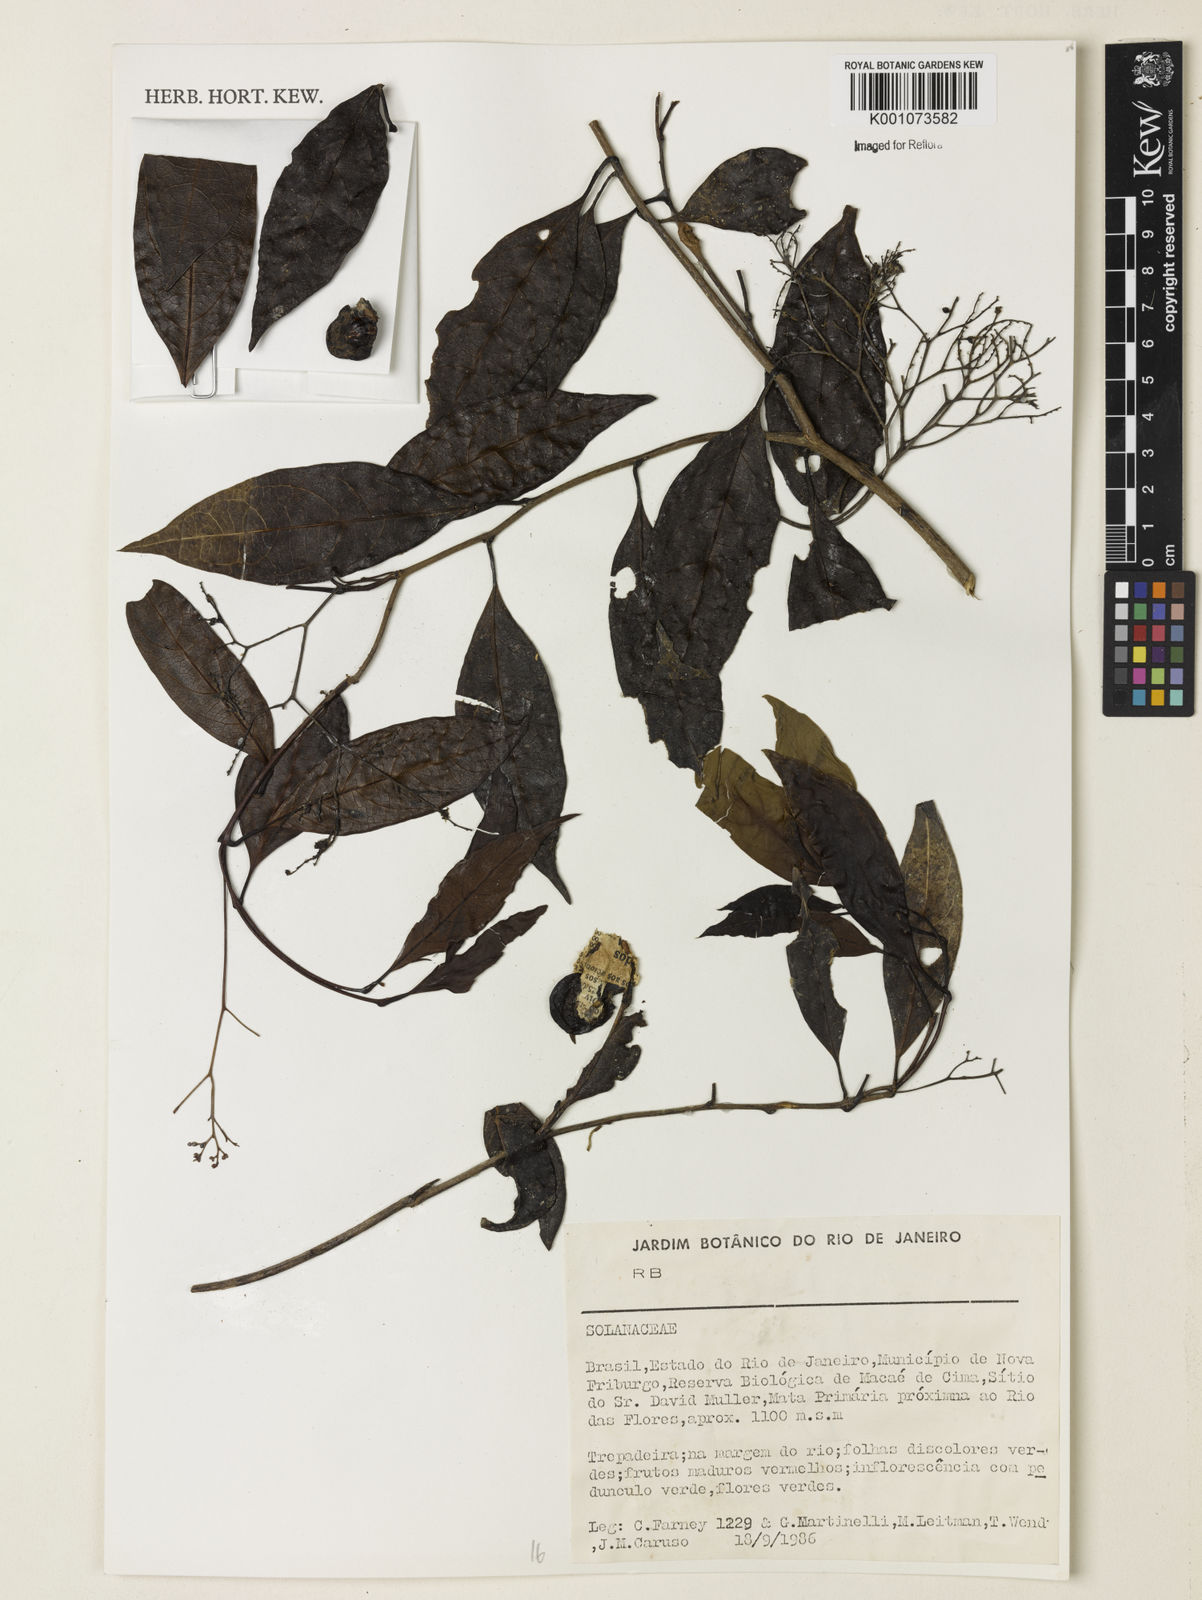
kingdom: Plantae
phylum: Tracheophyta
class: Magnoliopsida
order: Solanales
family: Solanaceae
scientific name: Solanaceae
